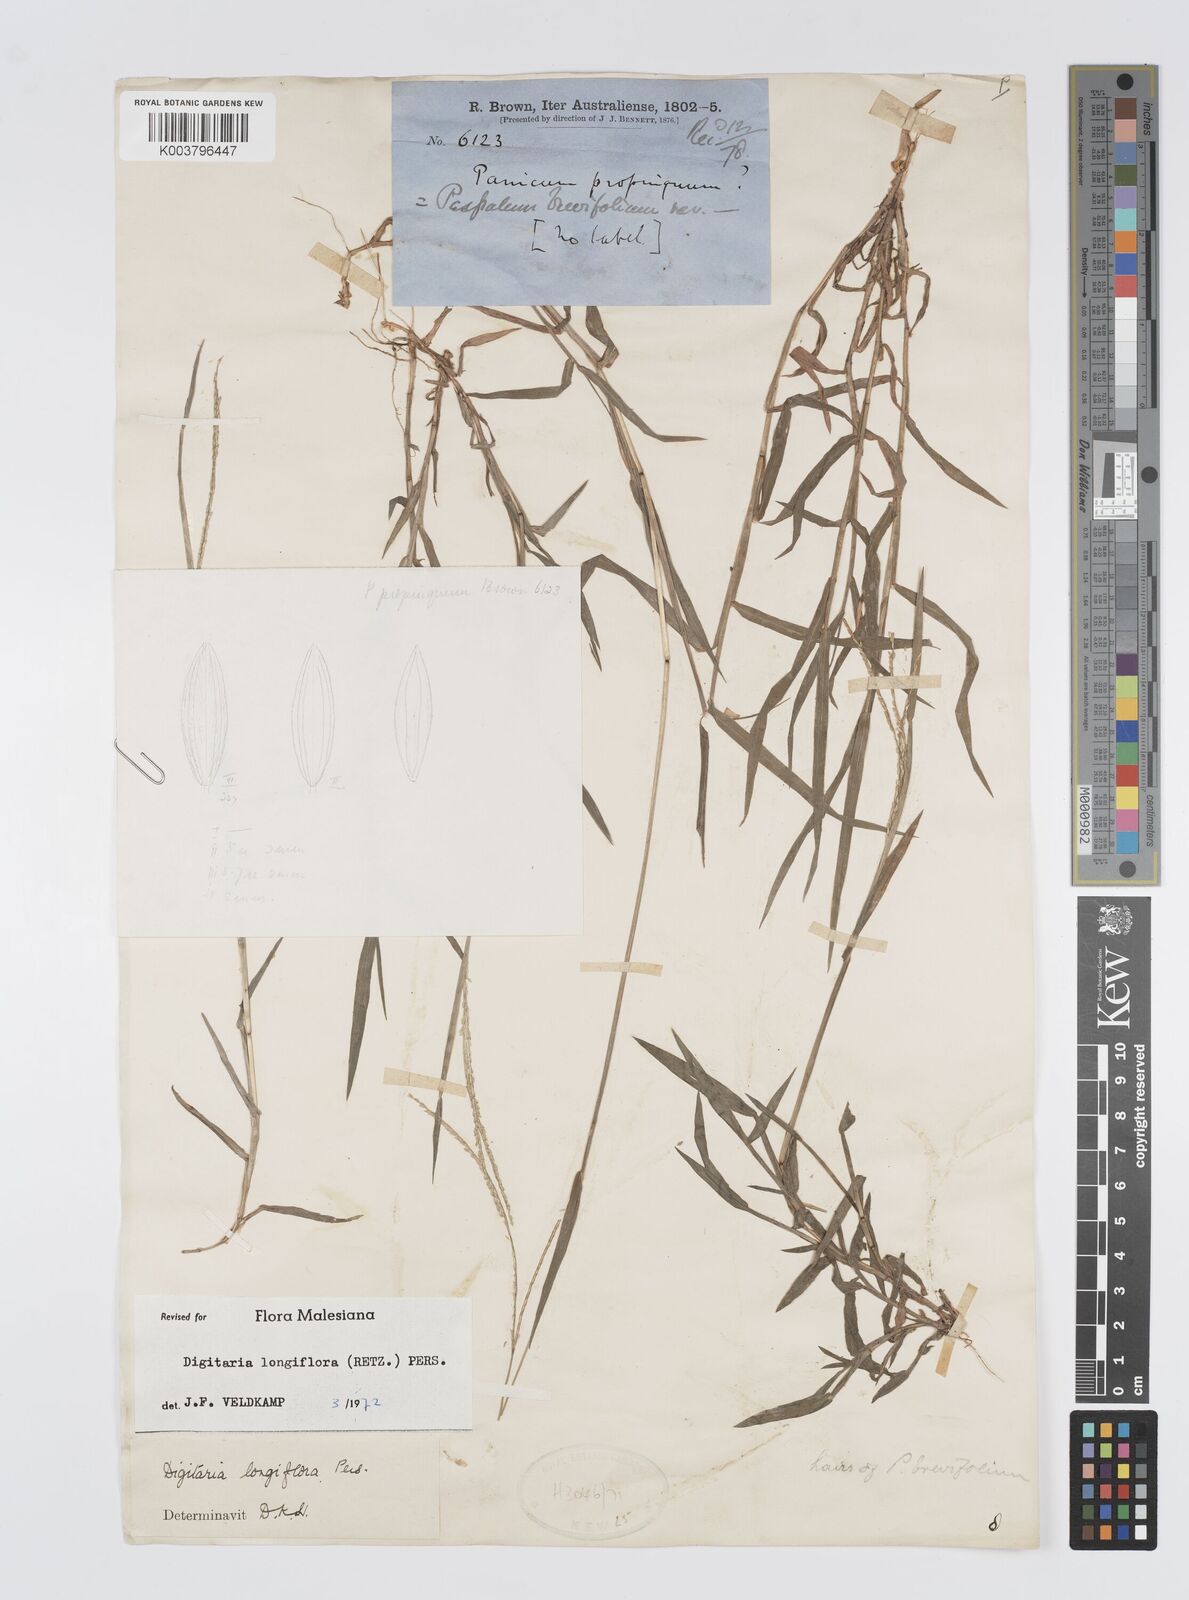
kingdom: Plantae
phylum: Tracheophyta
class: Liliopsida
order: Poales
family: Poaceae
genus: Digitaria
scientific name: Digitaria longiflora
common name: Wire crabgrass
